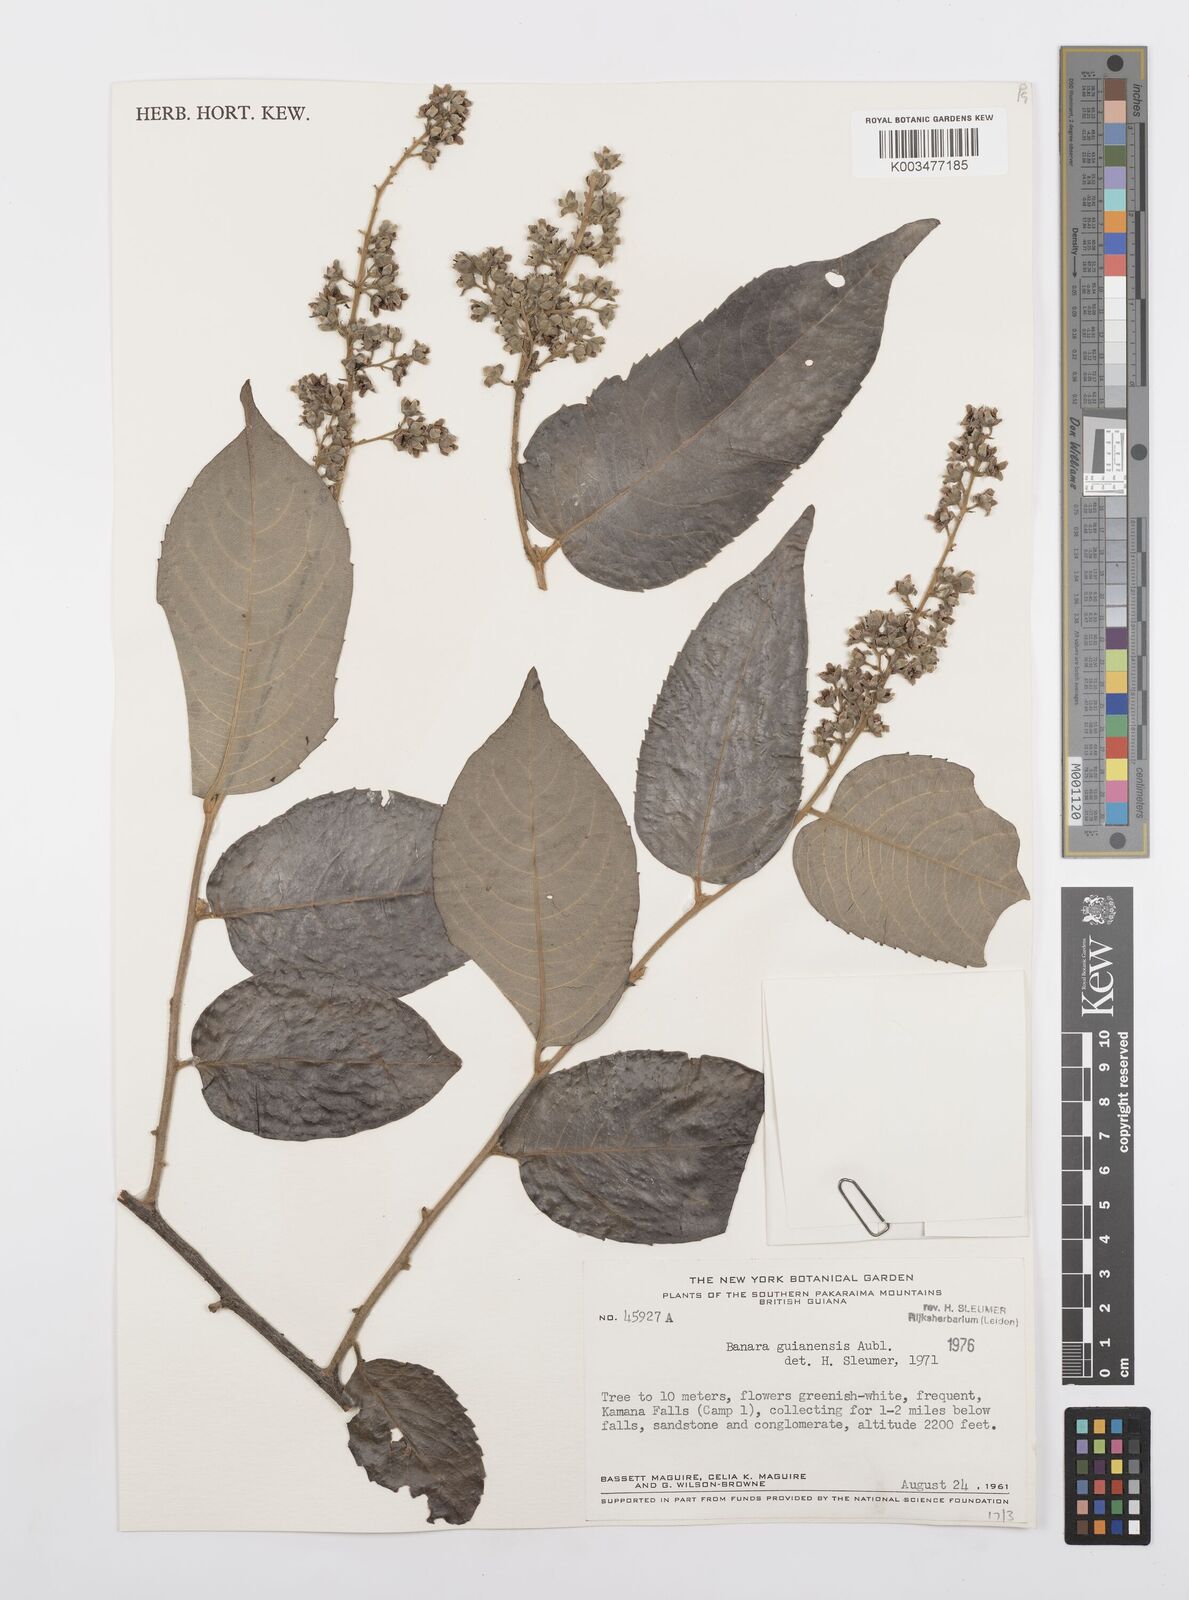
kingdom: Plantae
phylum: Tracheophyta
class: Magnoliopsida
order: Malpighiales
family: Salicaceae
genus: Banara
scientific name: Banara guianensis
